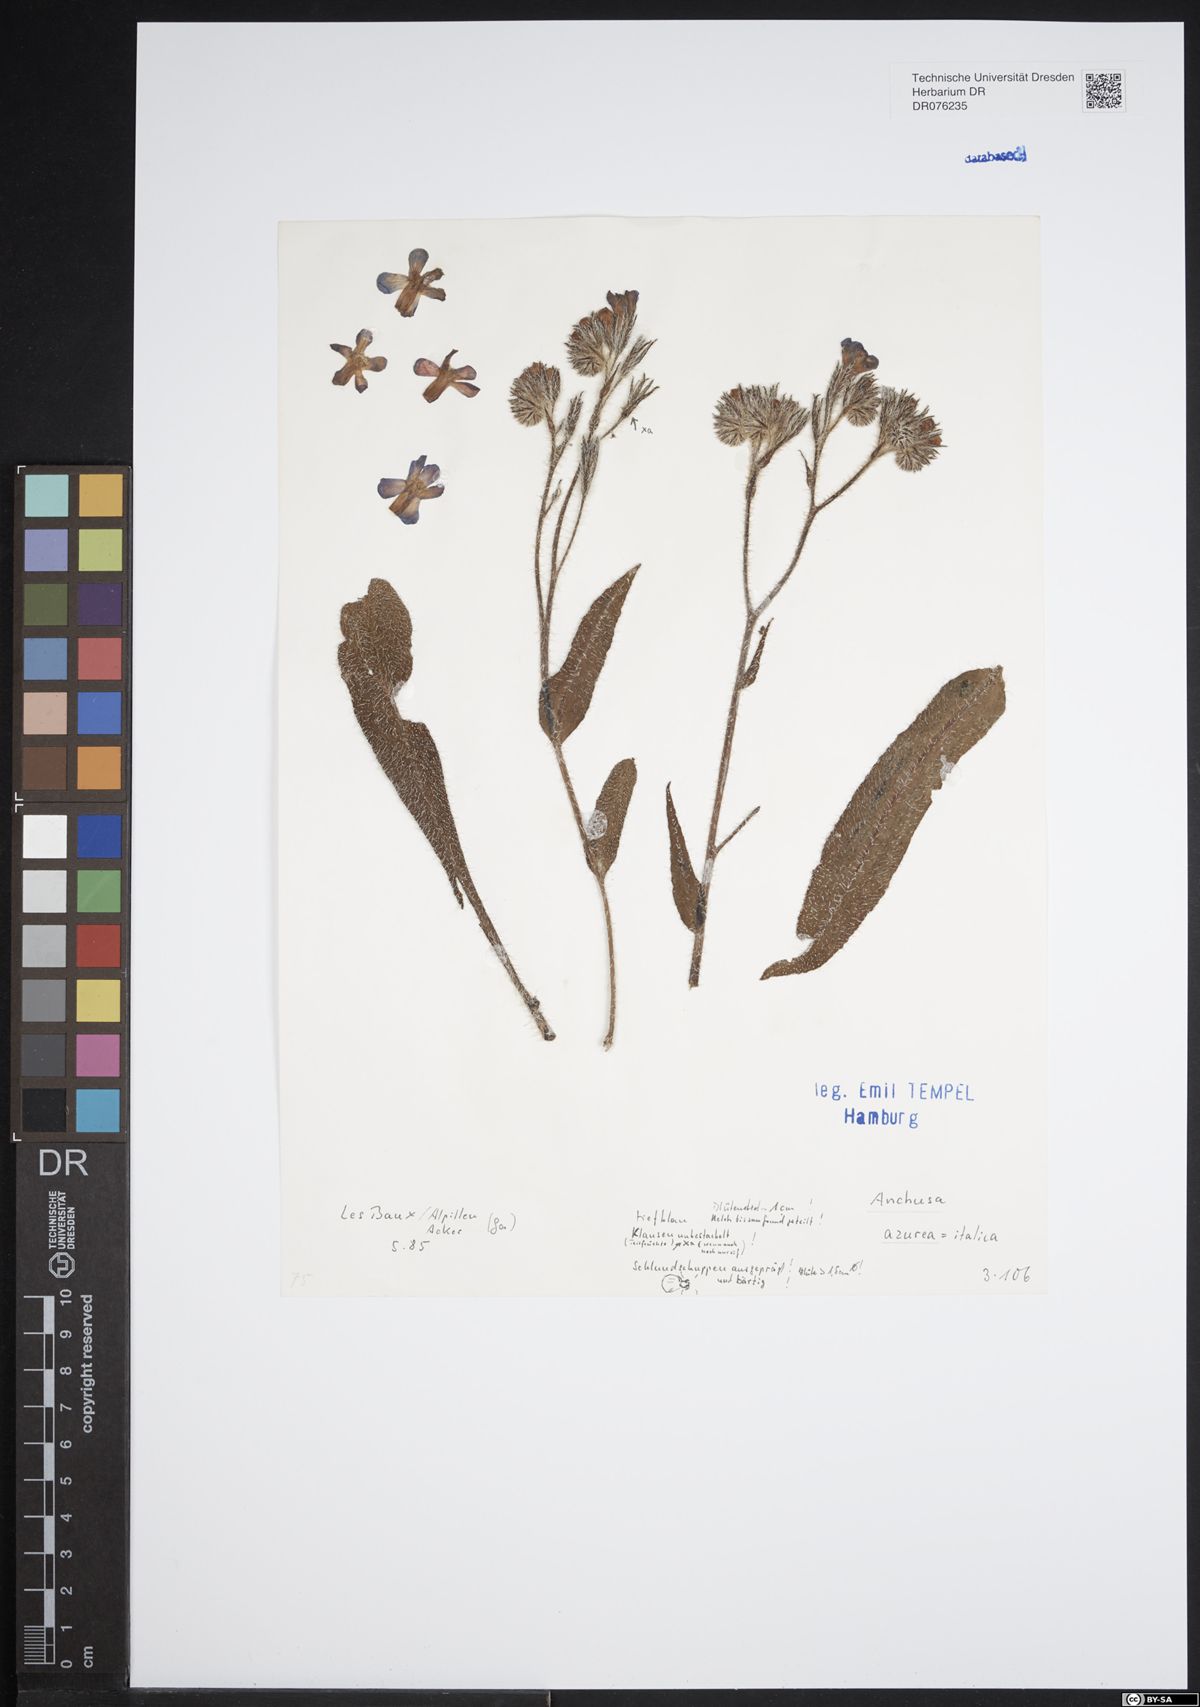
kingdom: Plantae
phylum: Tracheophyta
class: Magnoliopsida
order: Boraginales
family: Boraginaceae
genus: Anchusa
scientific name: Anchusa azurea
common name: Garden anchusa
